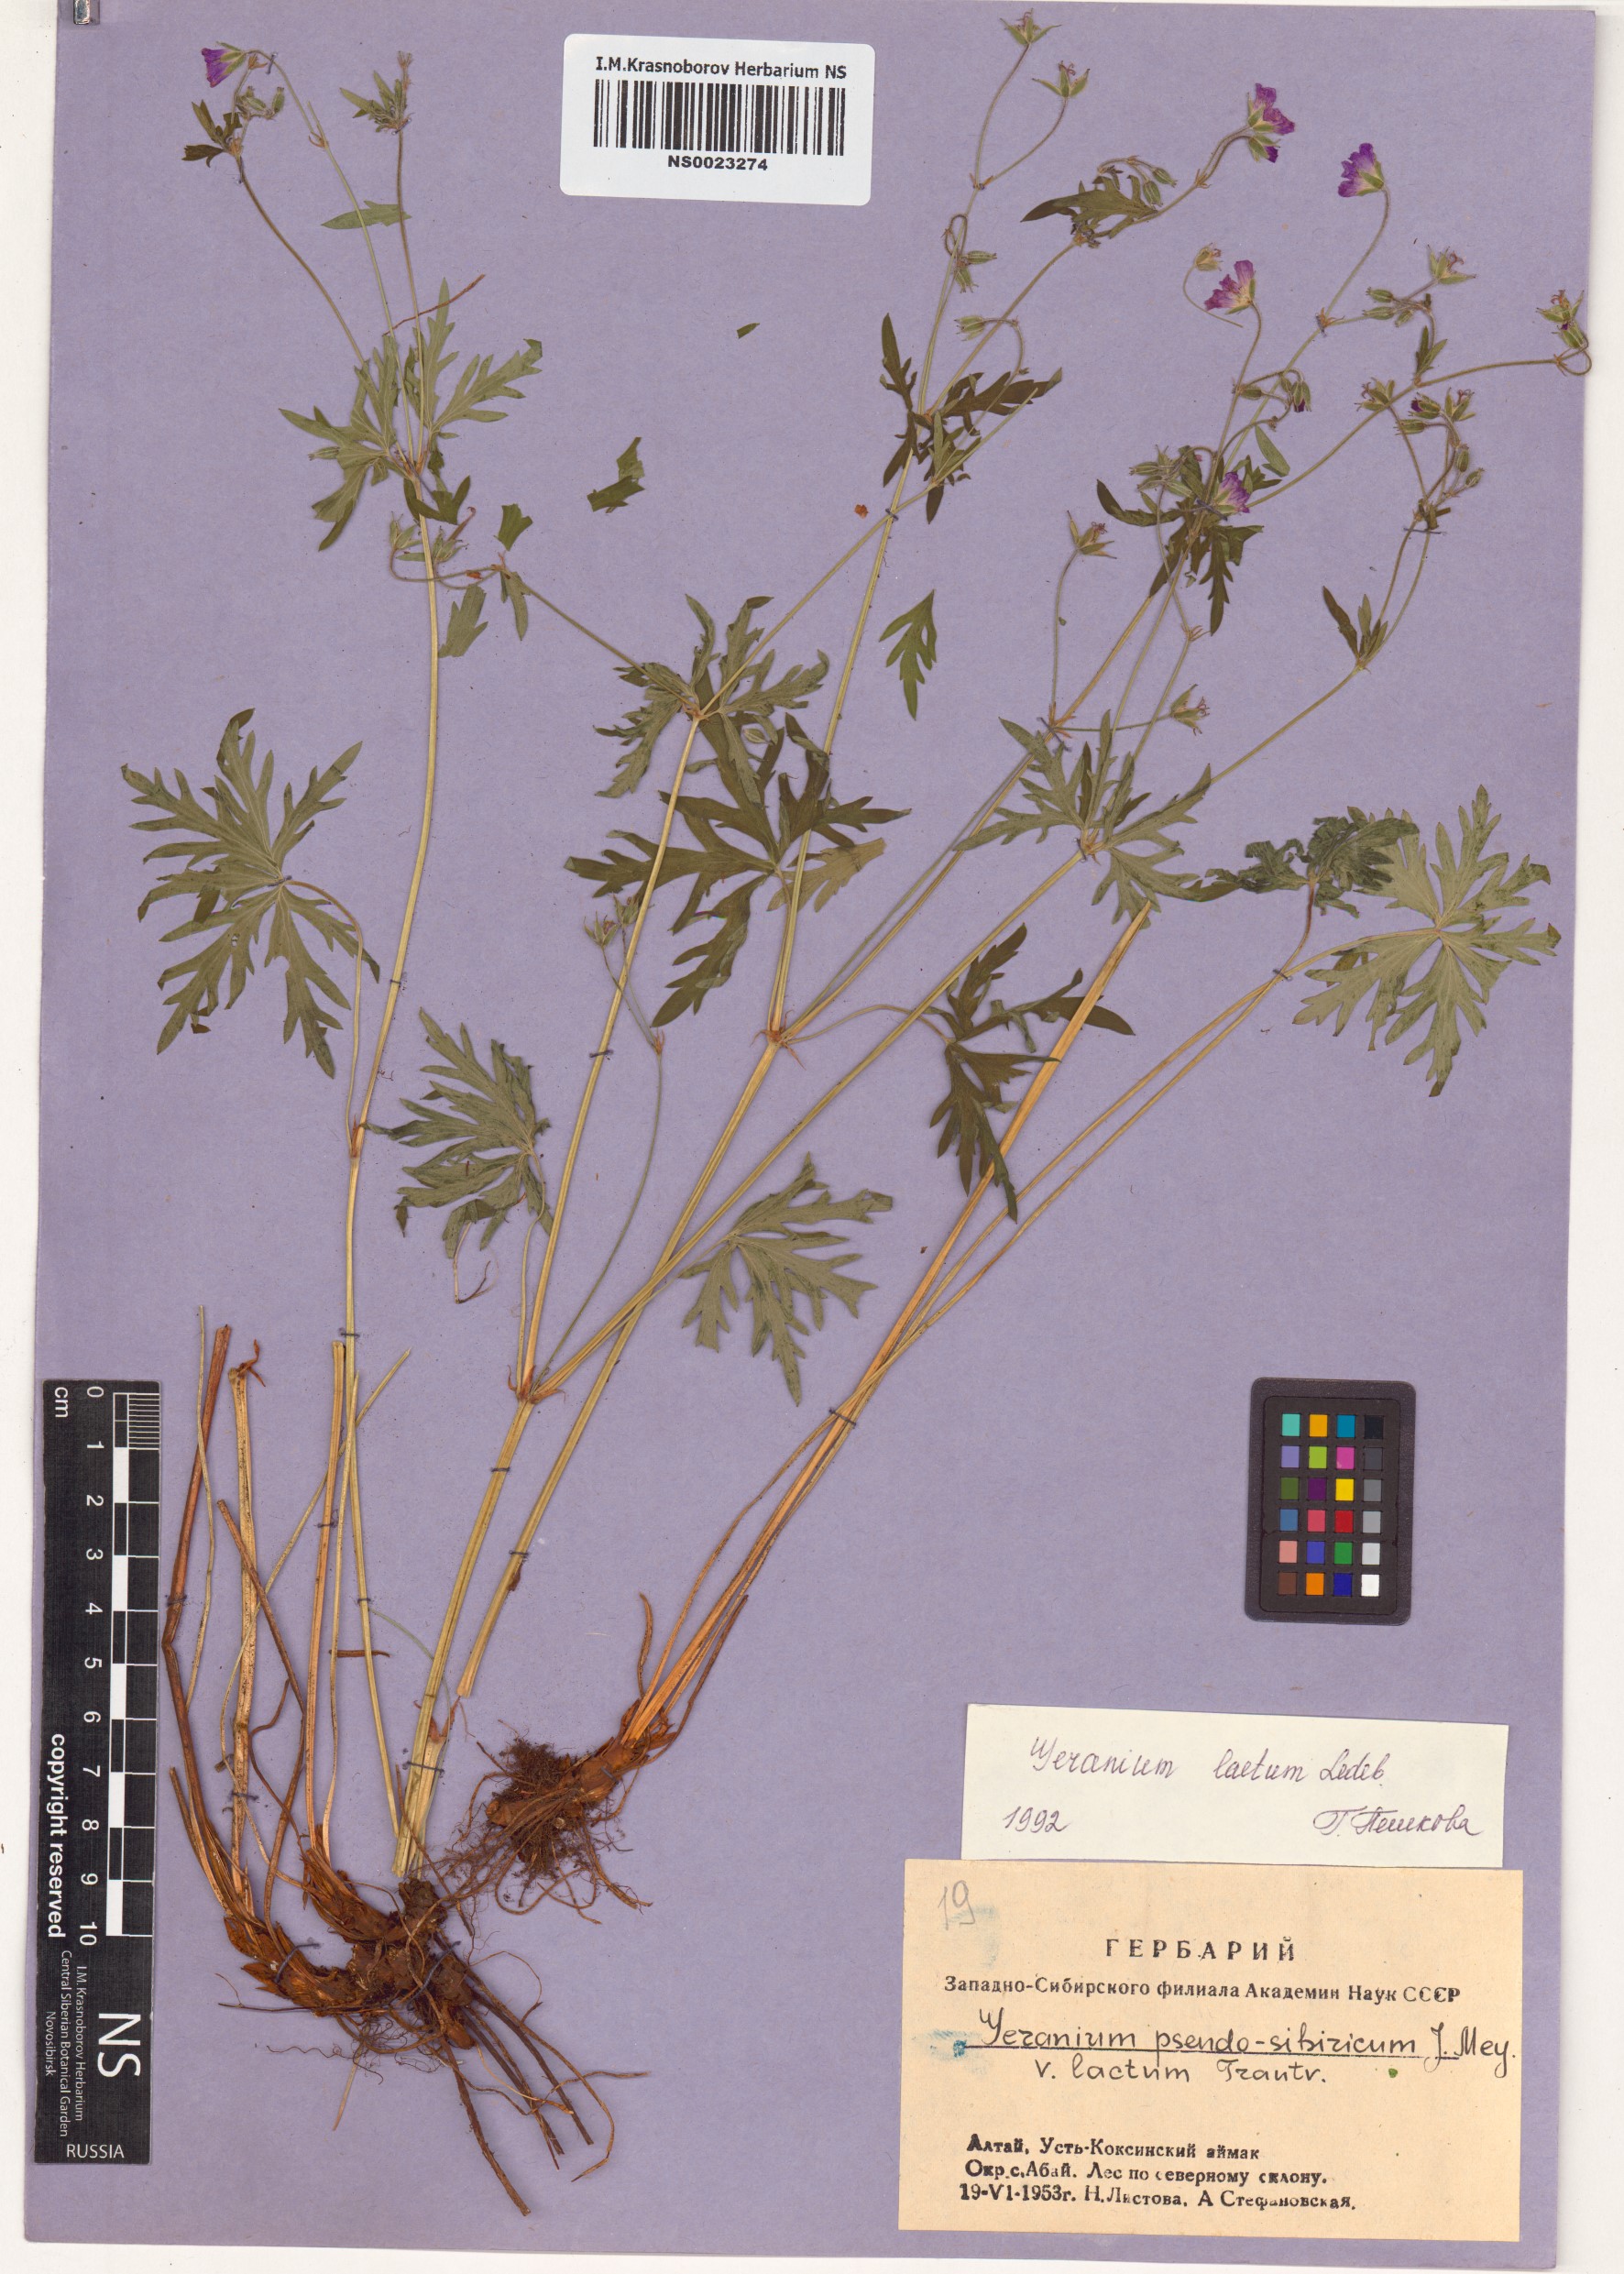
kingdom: Plantae
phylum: Tracheophyta
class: Magnoliopsida
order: Geraniales
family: Geraniaceae
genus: Geranium
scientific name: Geranium pseudosibiricum
